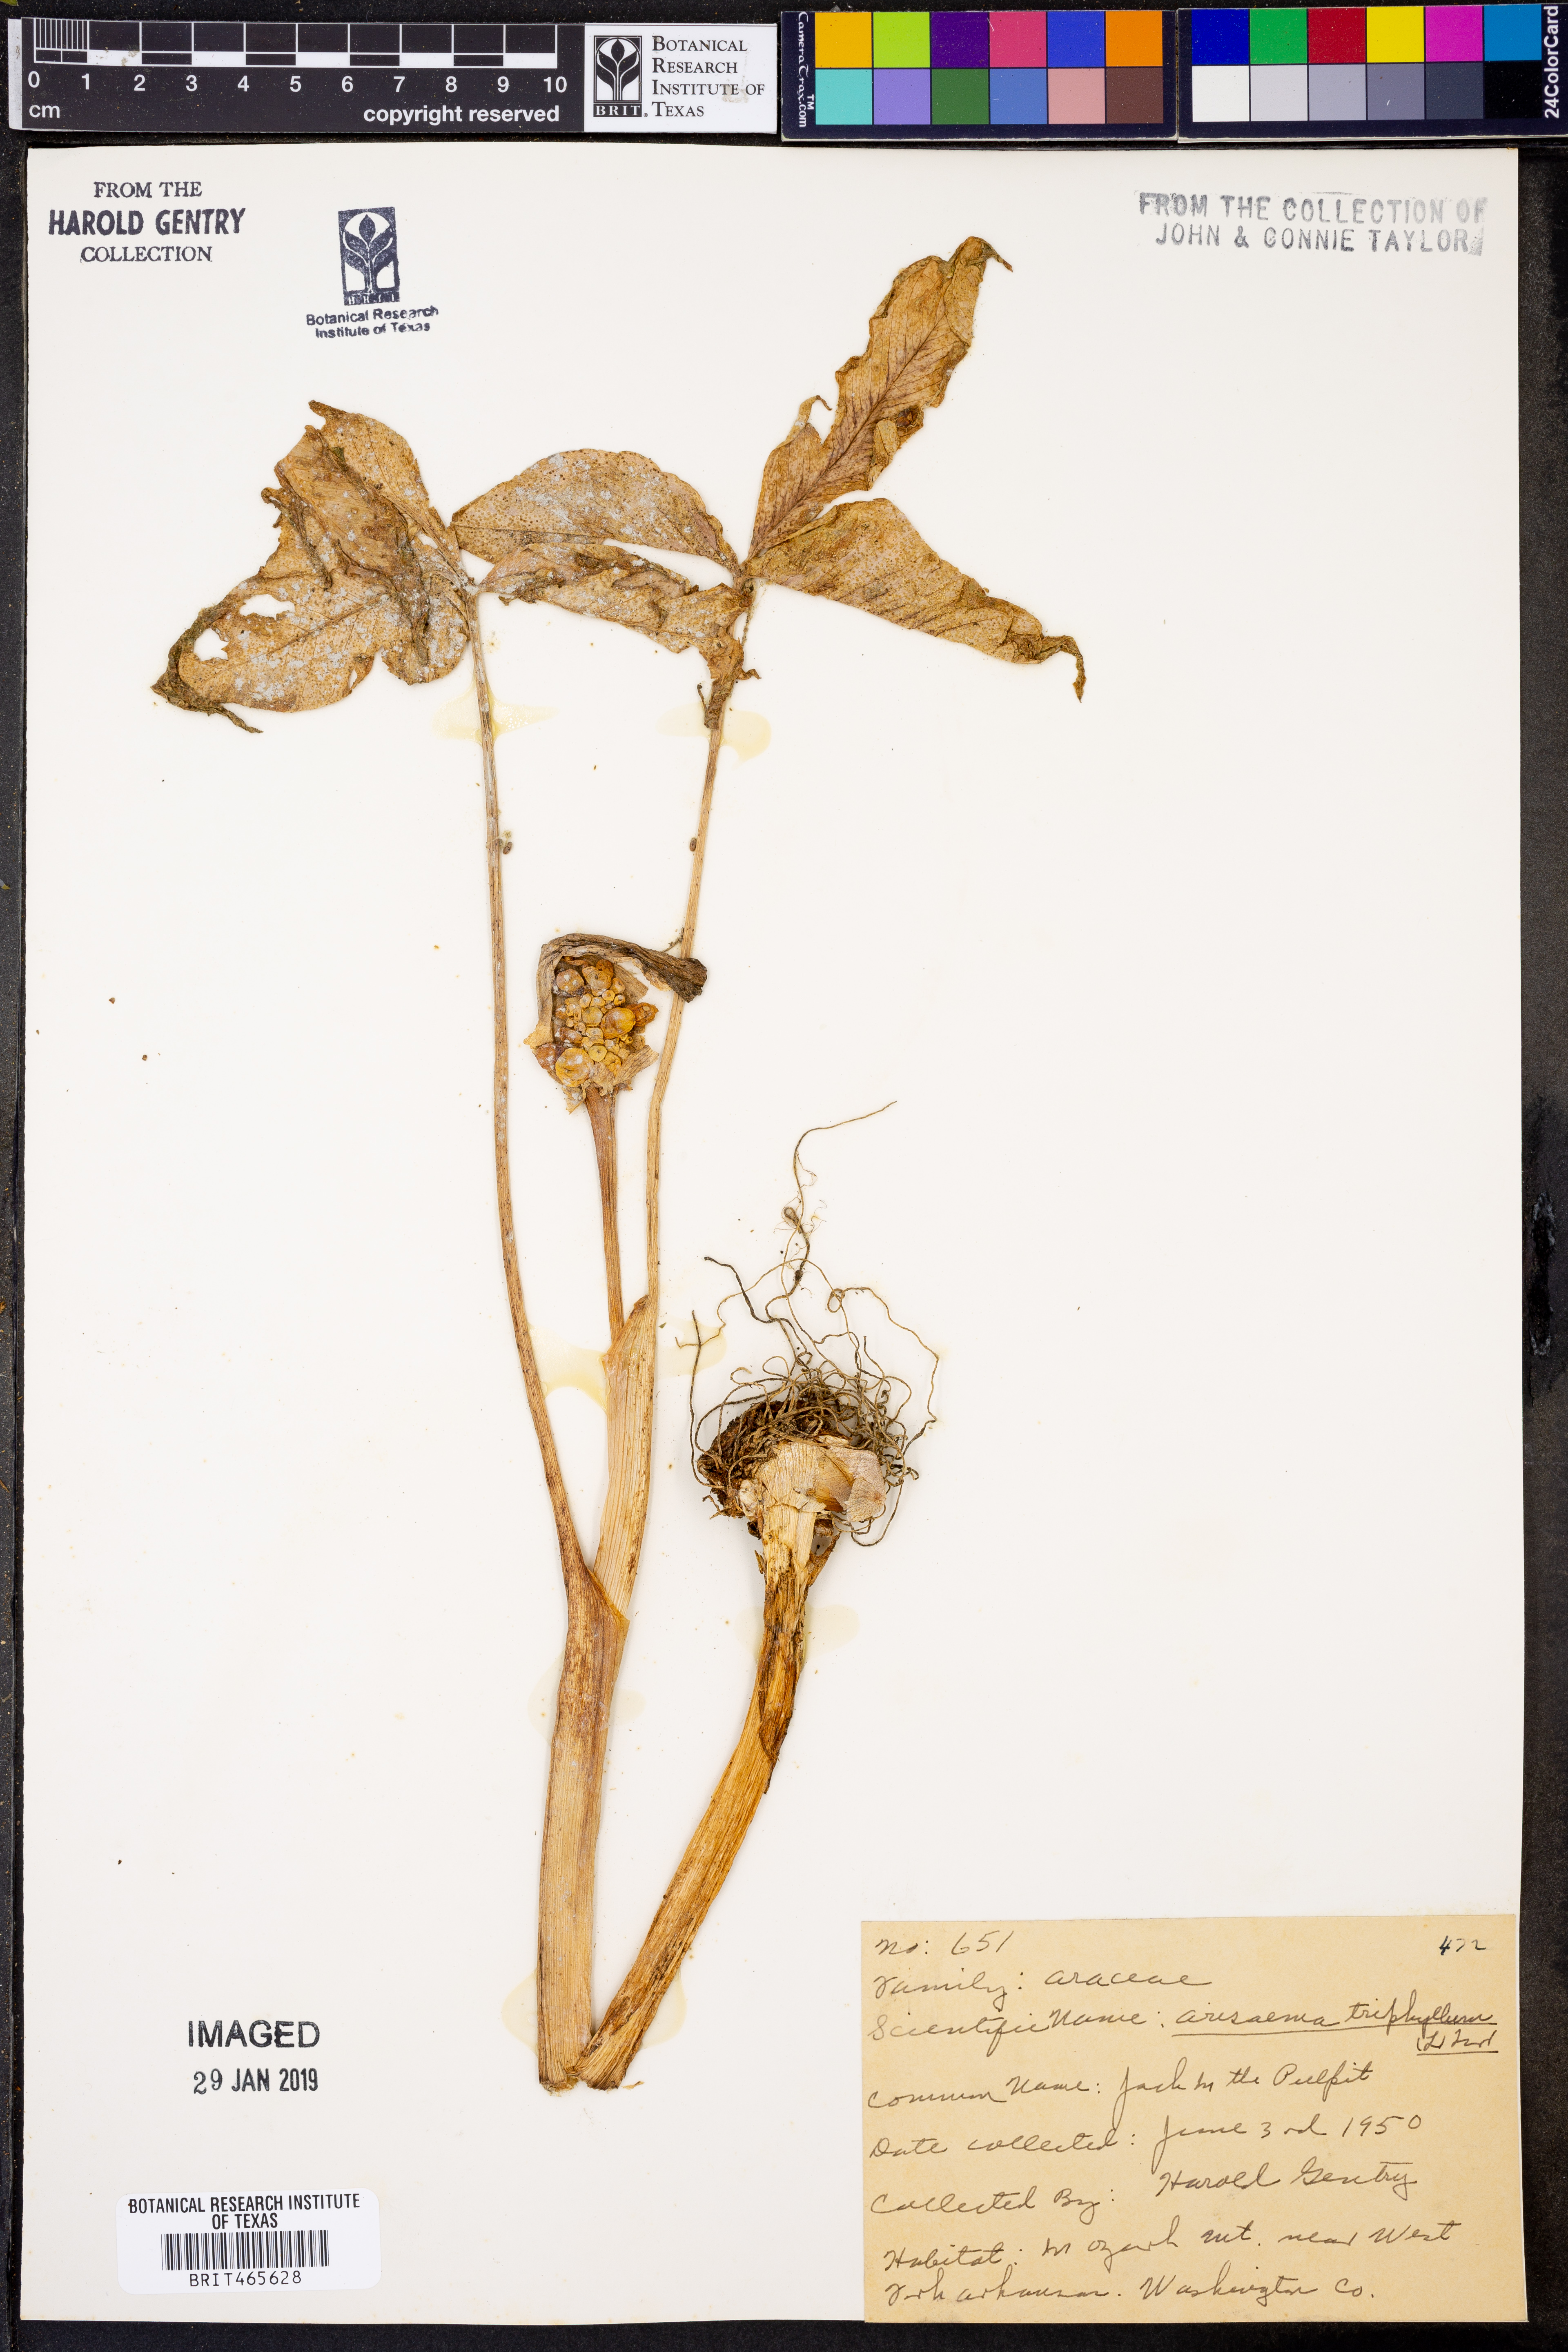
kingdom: Plantae
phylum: Tracheophyta
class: Liliopsida
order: Alismatales
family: Araceae
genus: Arisaema
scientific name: Arisaema triphyllum
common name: Jack-in-the-pulpit
